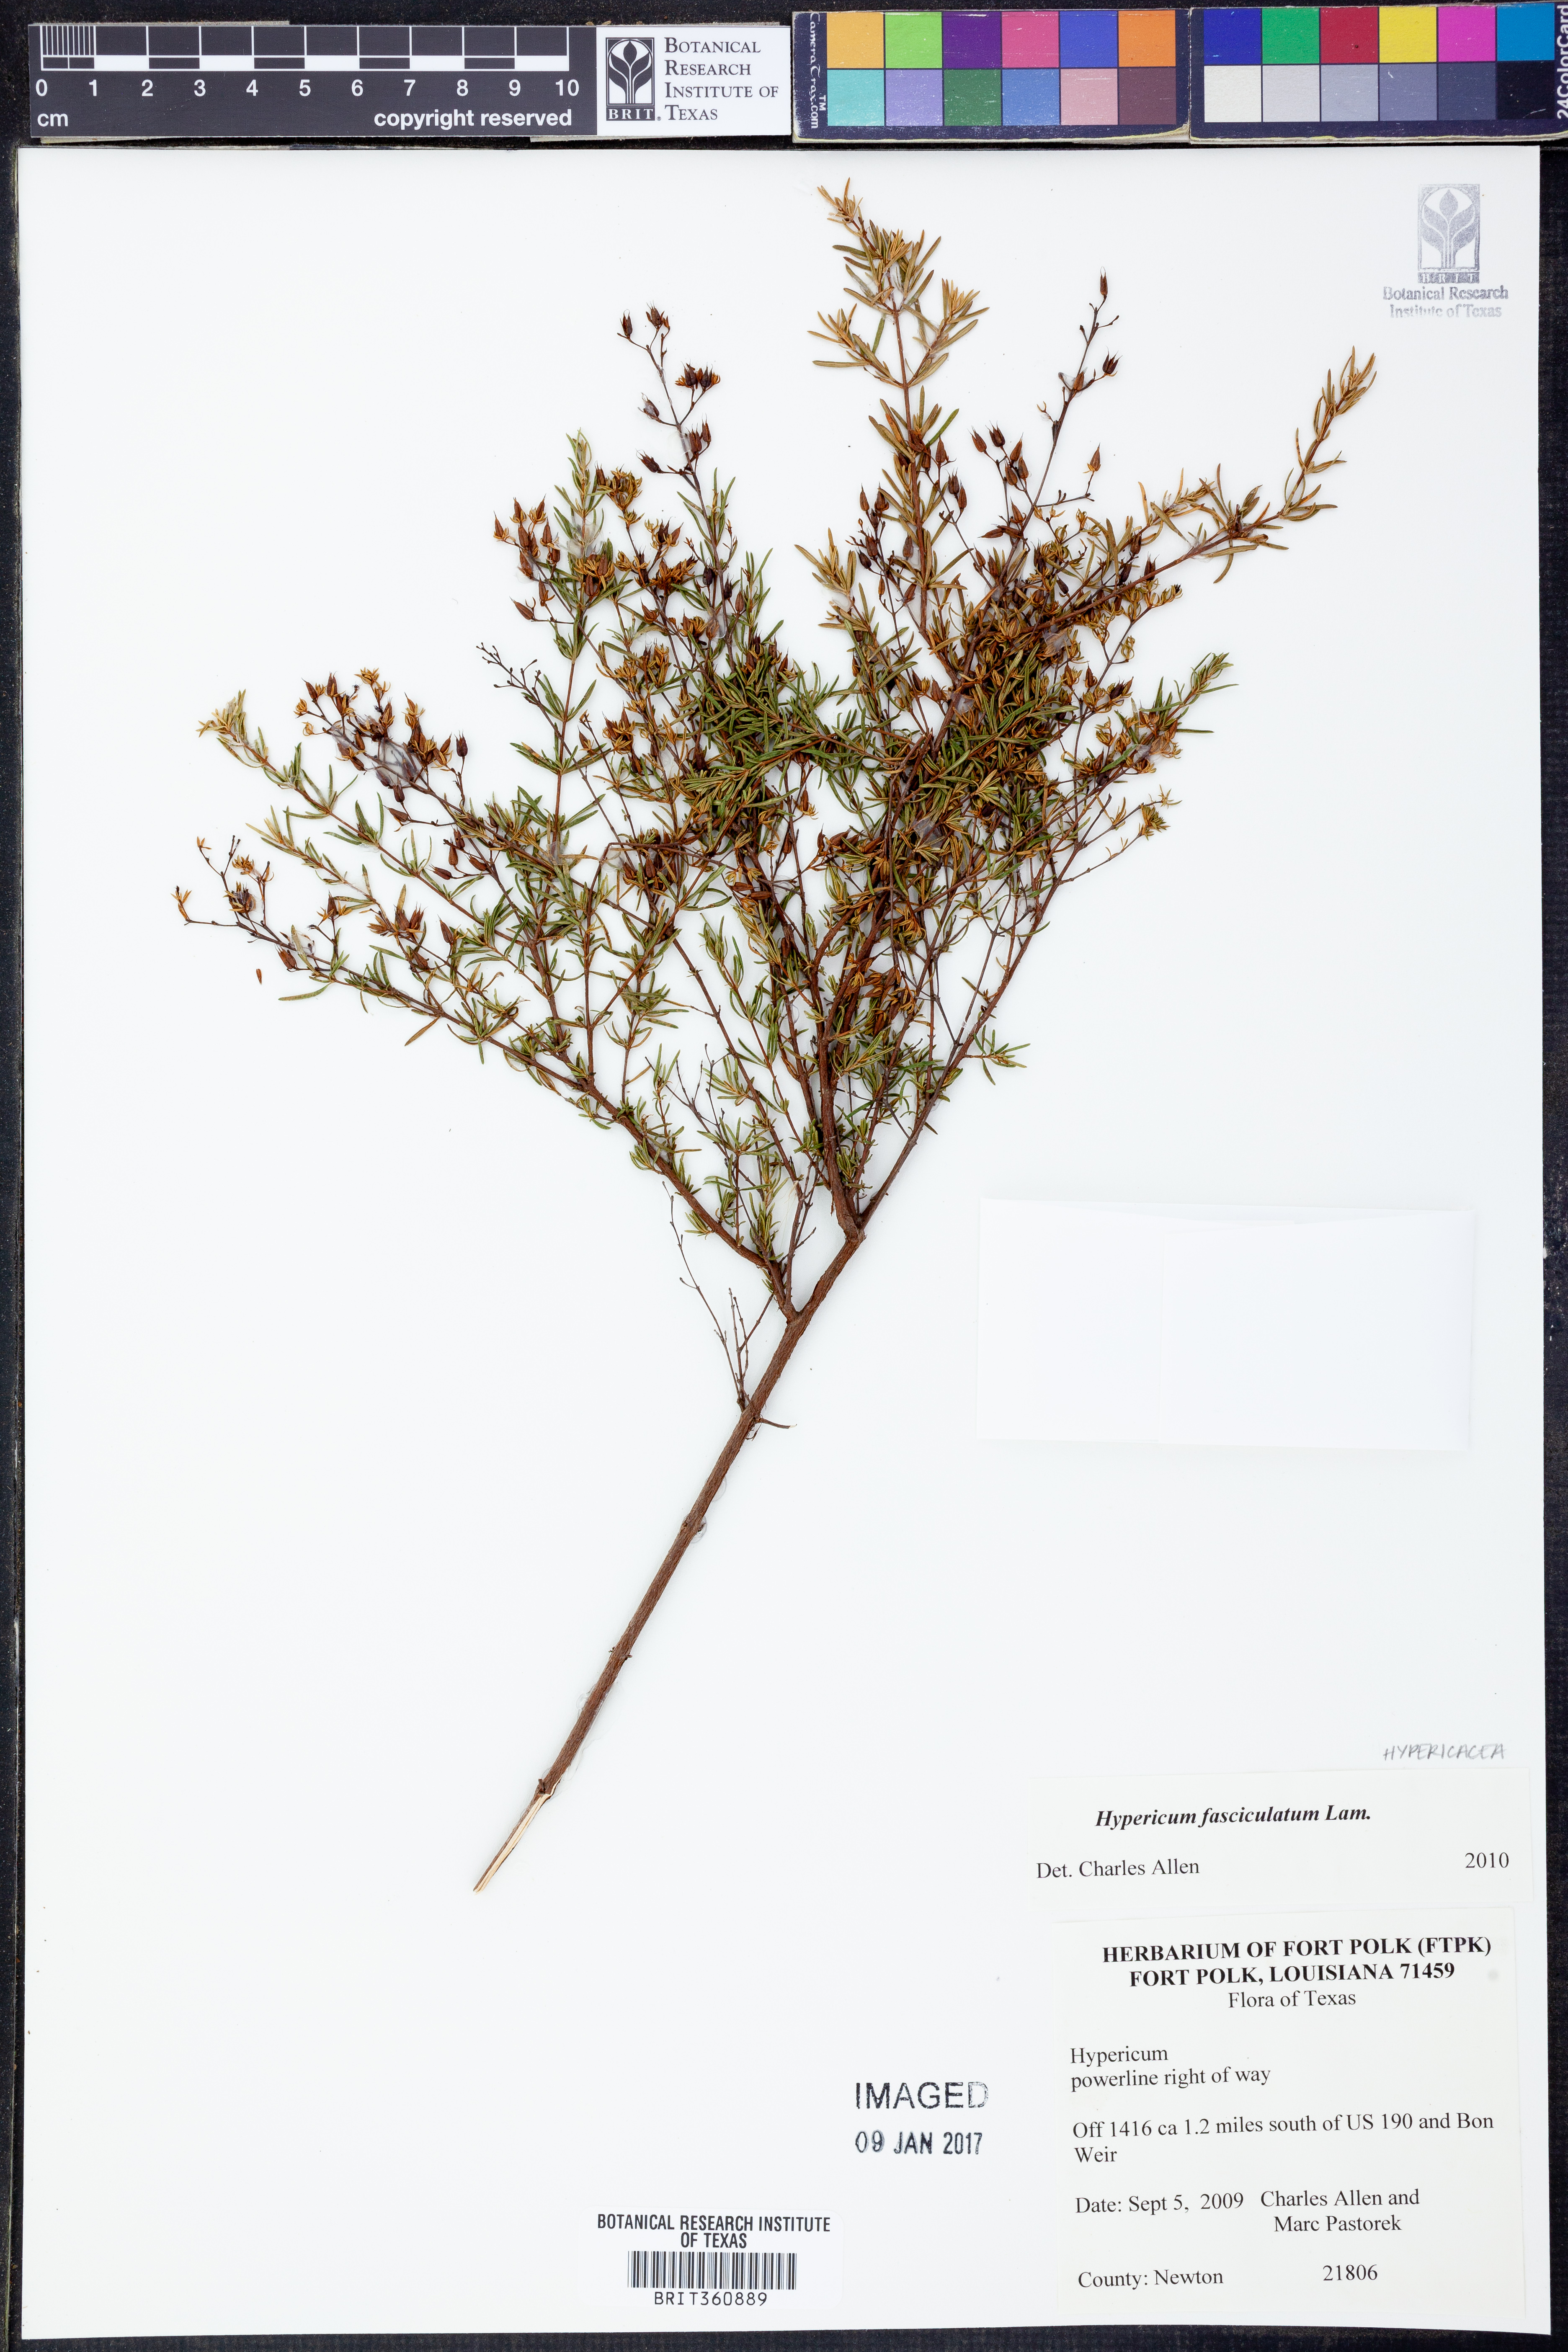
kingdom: Plantae
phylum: Tracheophyta
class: Magnoliopsida
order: Malpighiales
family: Hypericaceae
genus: Hypericum
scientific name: Hypericum fasciculatum
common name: Peelbark st. john's wort
